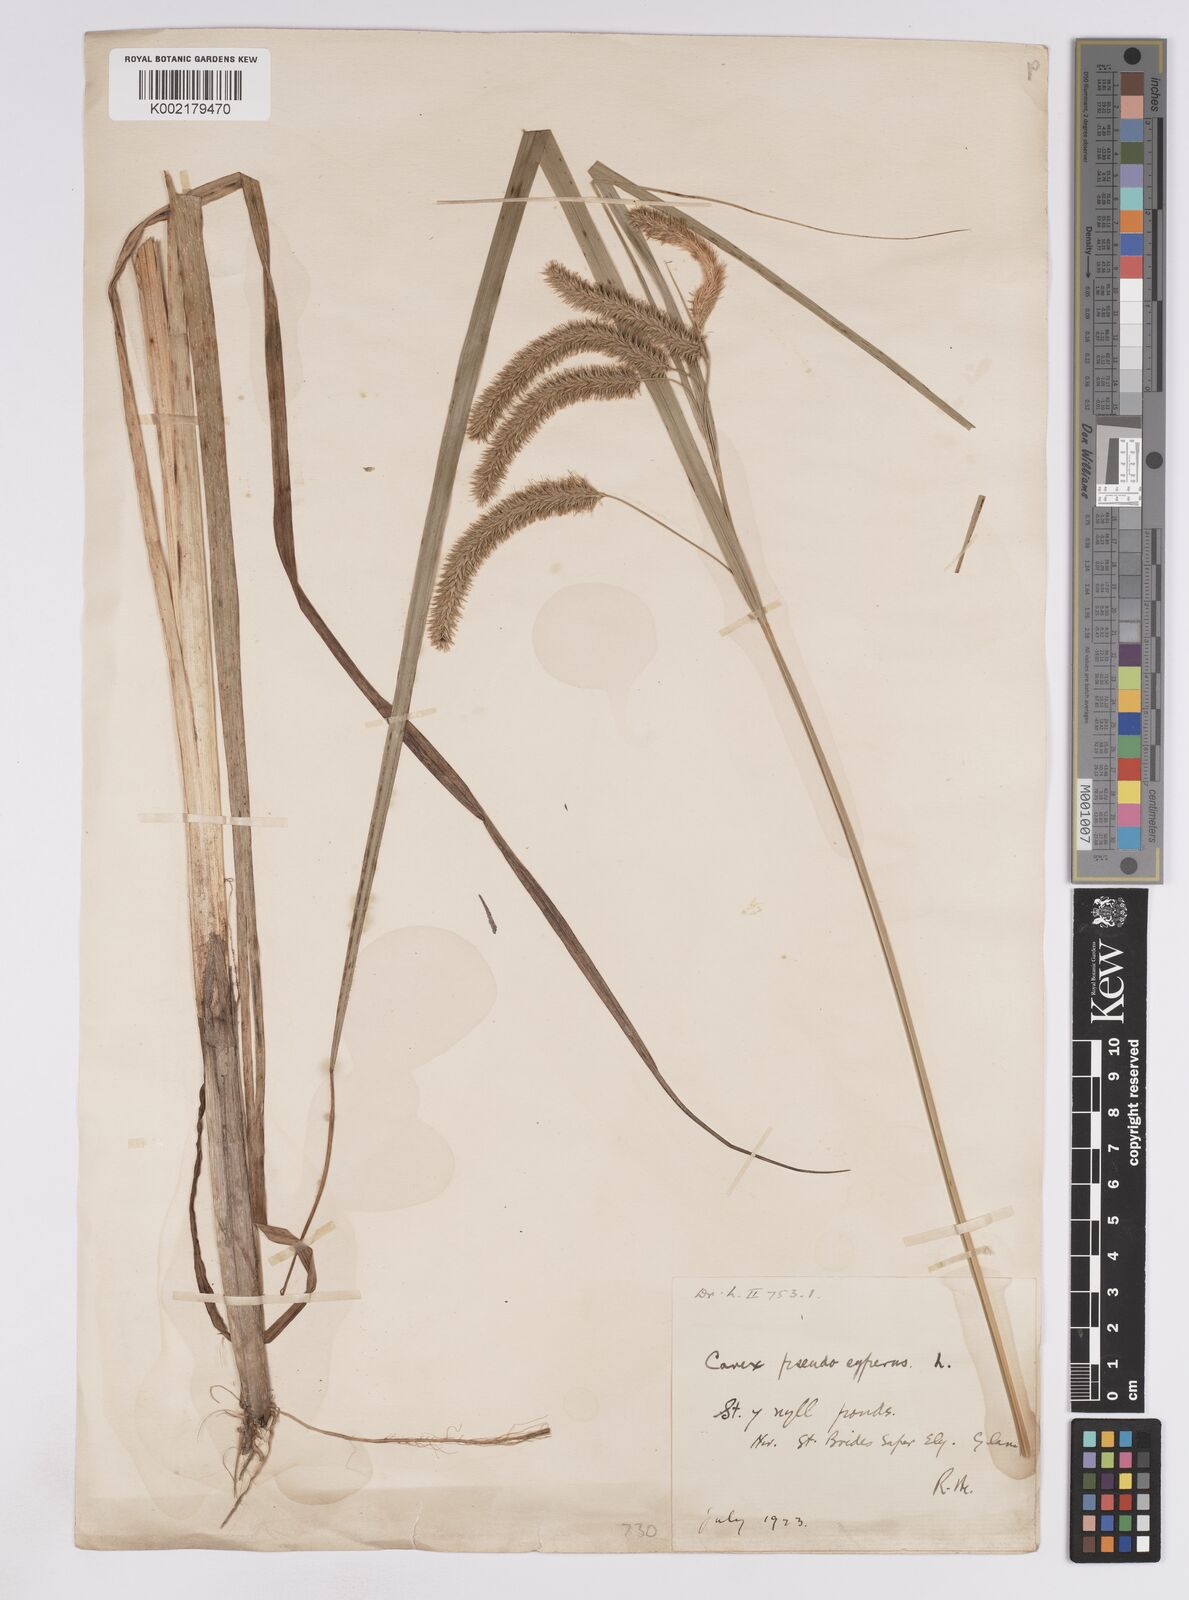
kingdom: Plantae
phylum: Tracheophyta
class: Liliopsida
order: Poales
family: Cyperaceae
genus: Carex
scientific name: Carex pseudocyperus
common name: Cyperus sedge
